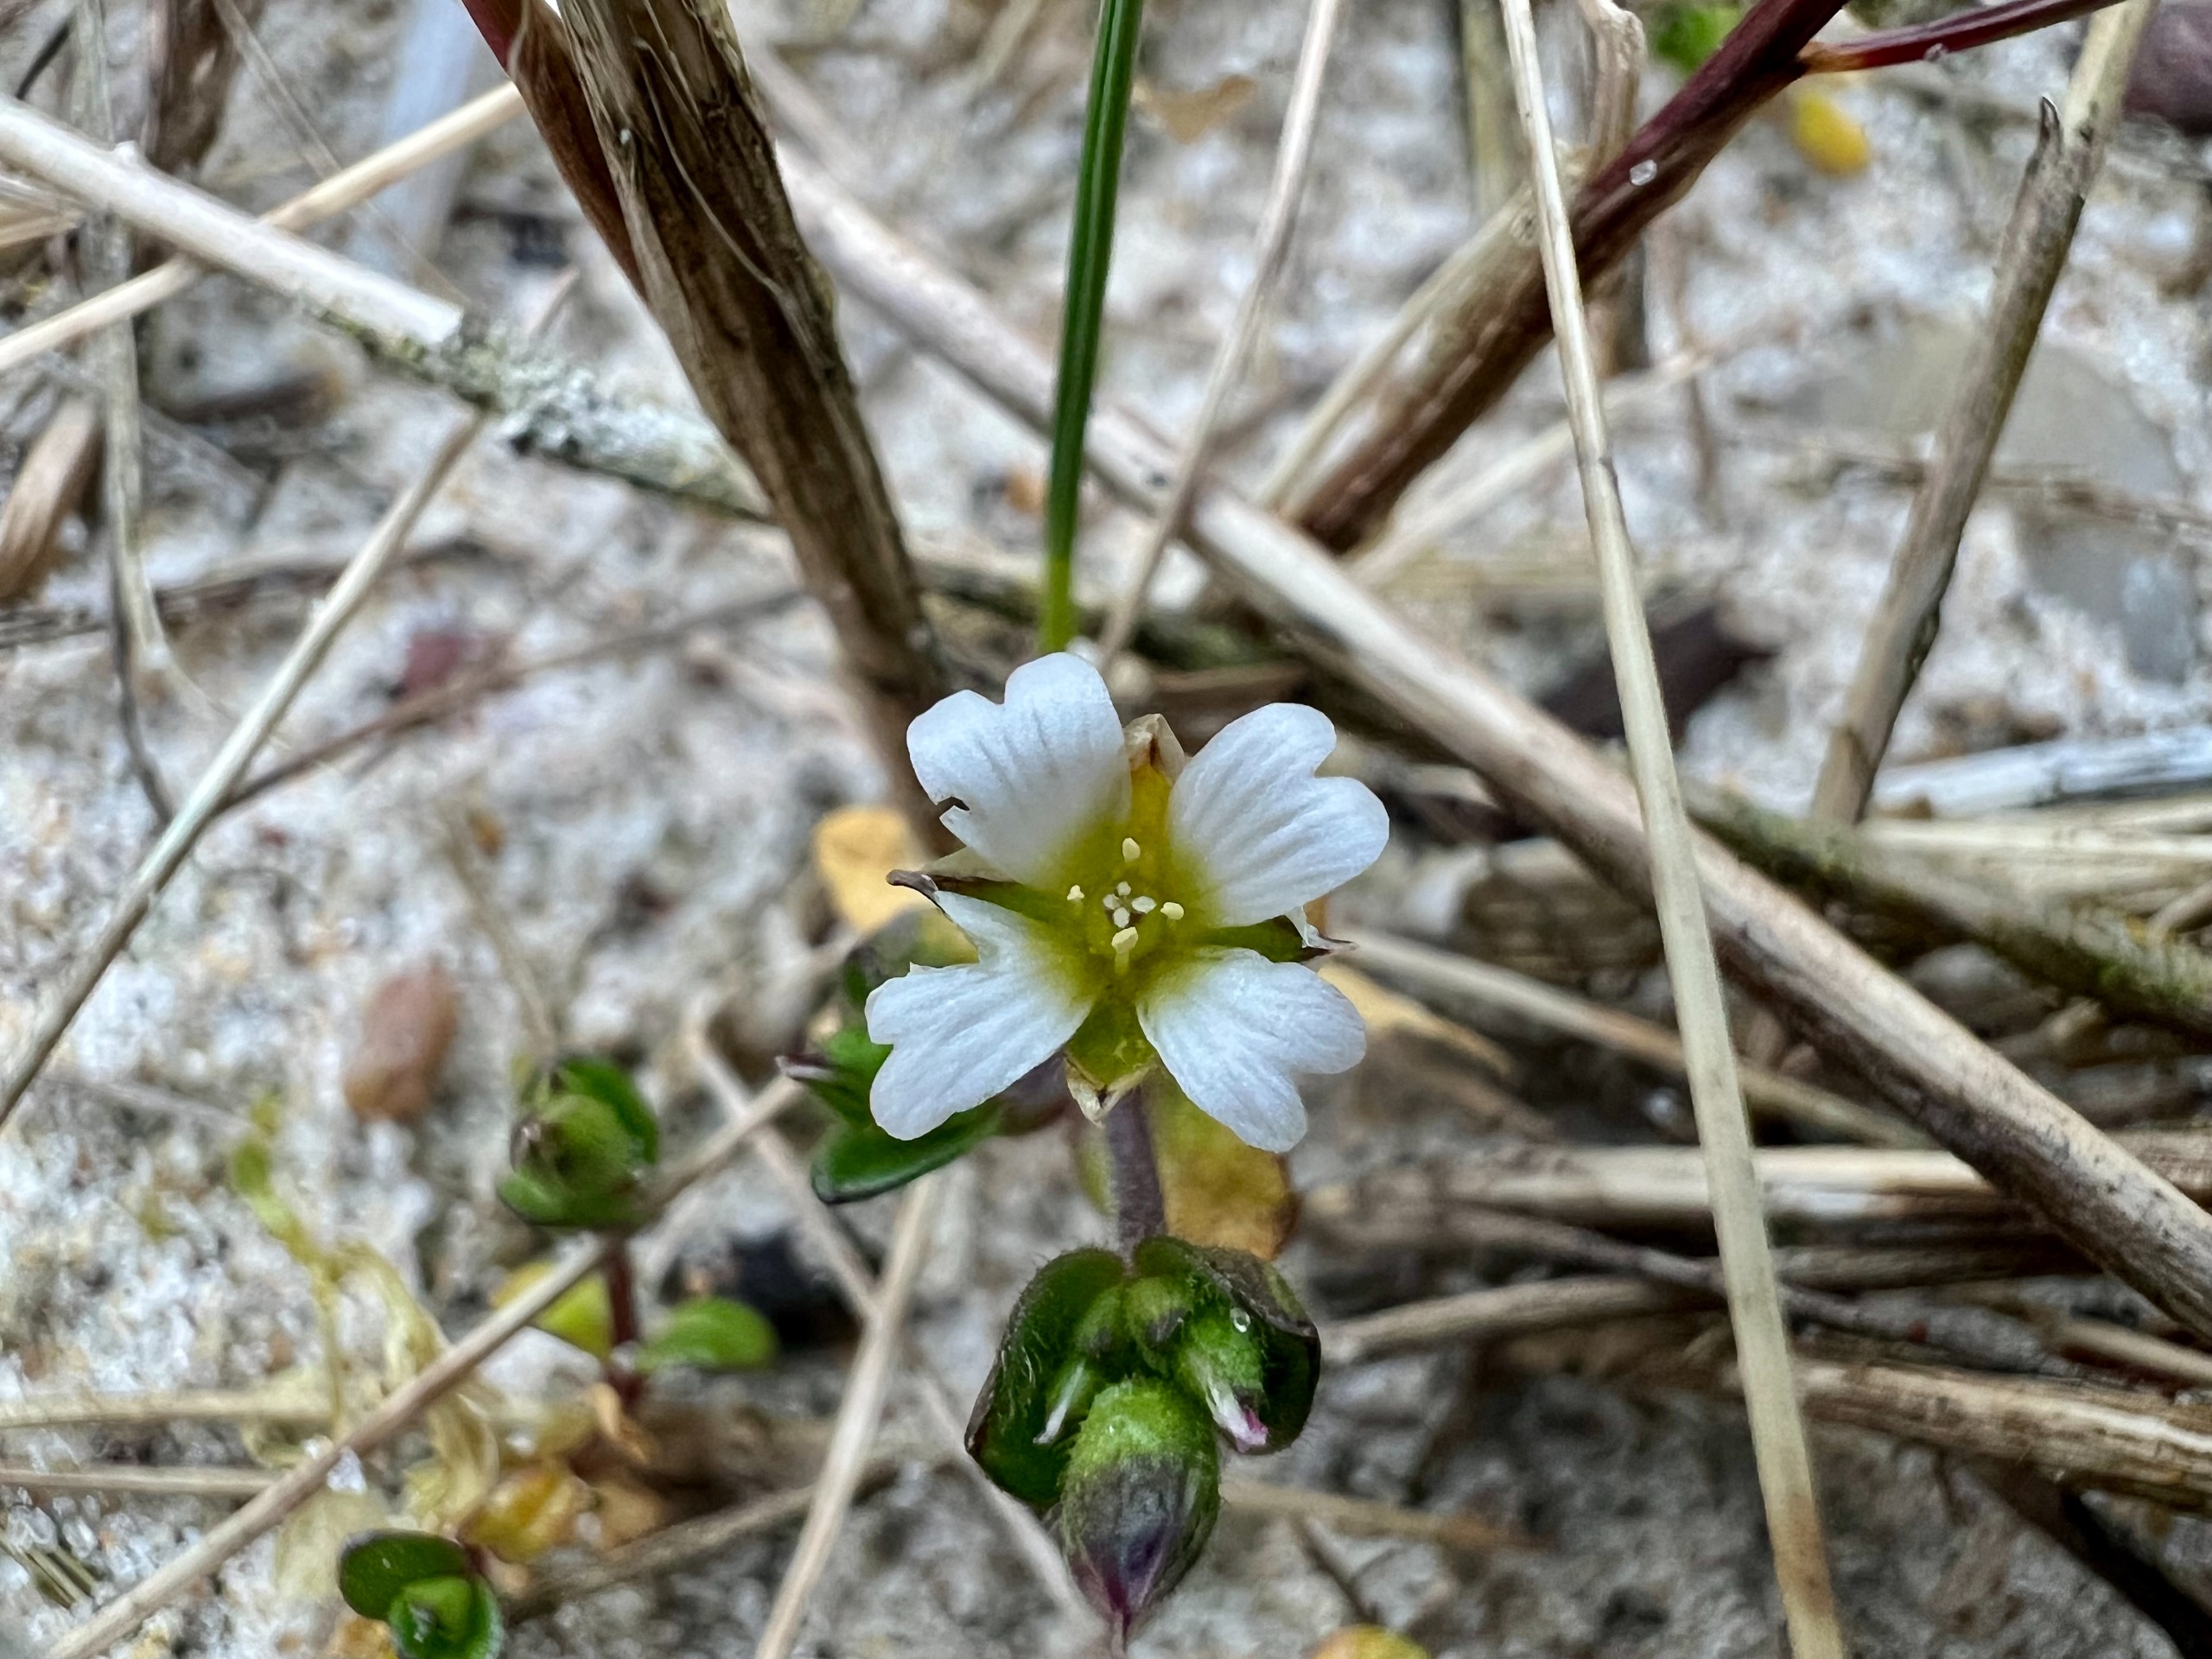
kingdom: Plantae
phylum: Tracheophyta
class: Magnoliopsida
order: Caryophyllales
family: Caryophyllaceae
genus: Cerastium
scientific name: Cerastium diffusum
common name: Firehannet hønsetarm
